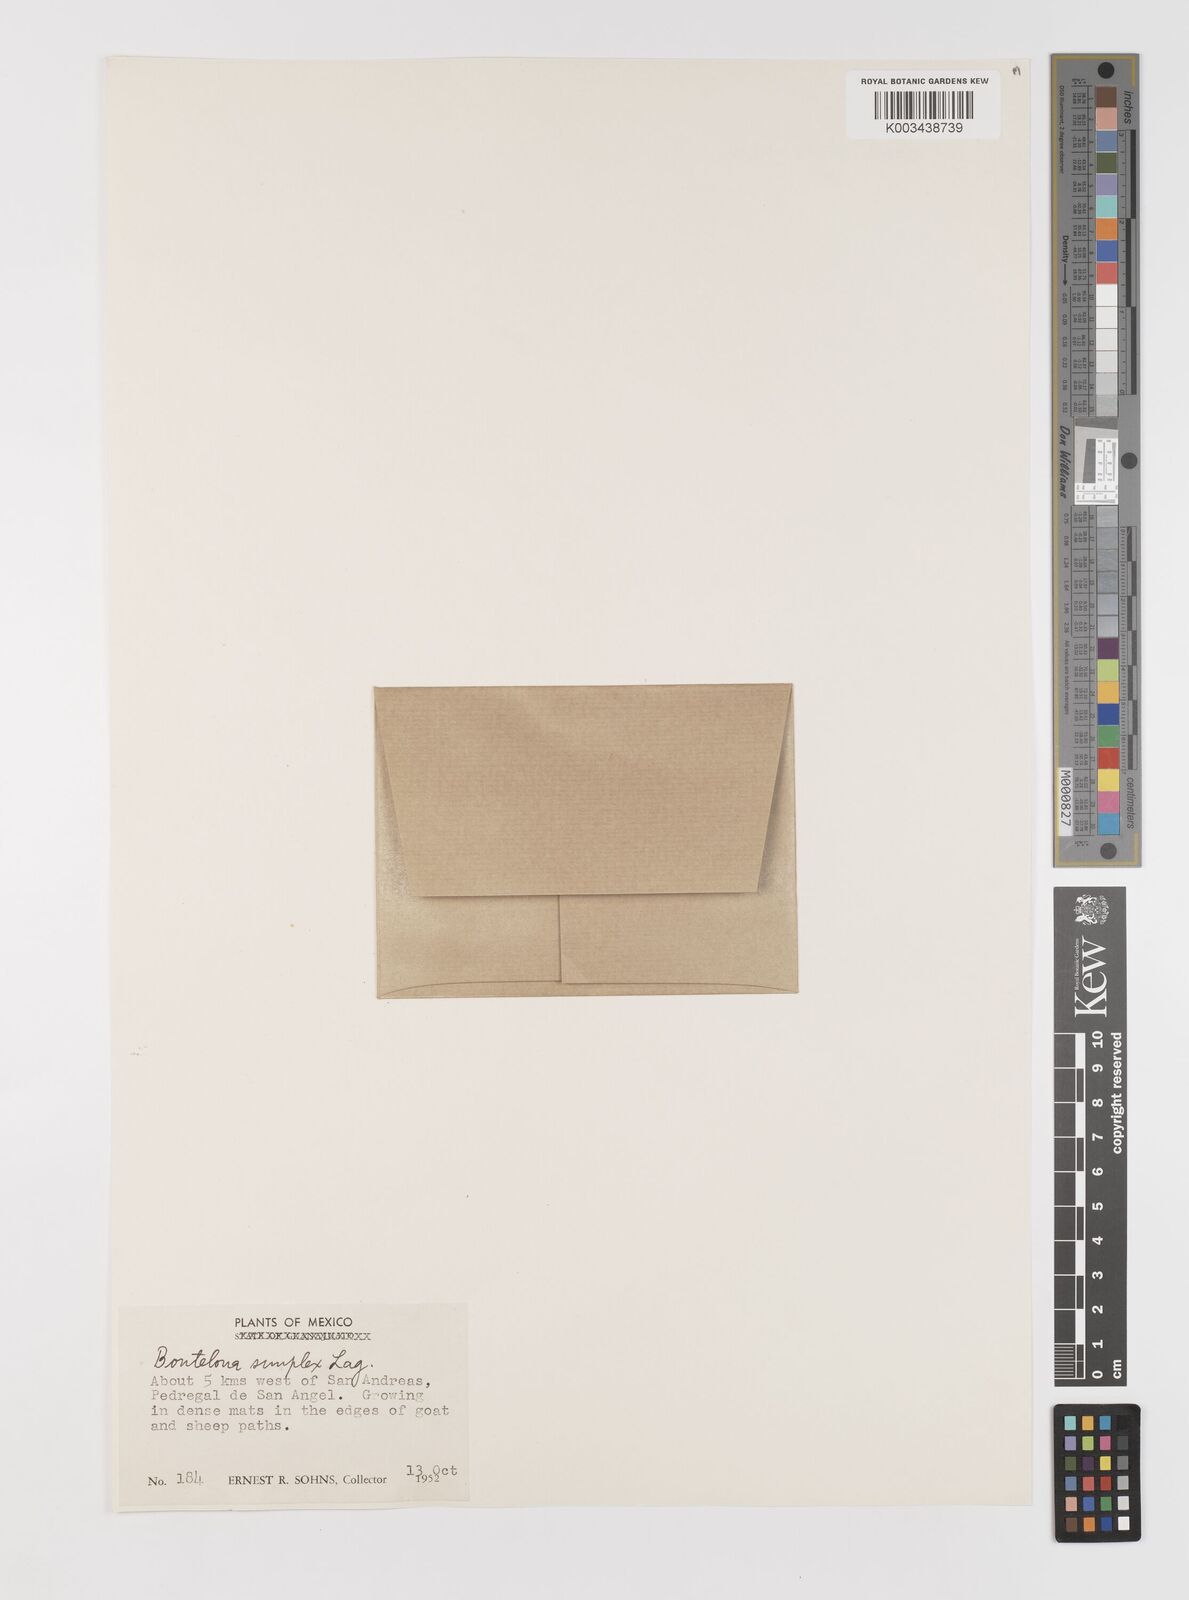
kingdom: Plantae
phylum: Tracheophyta
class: Liliopsida
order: Poales
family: Poaceae
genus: Bouteloua
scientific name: Bouteloua simplex
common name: Mat grama
